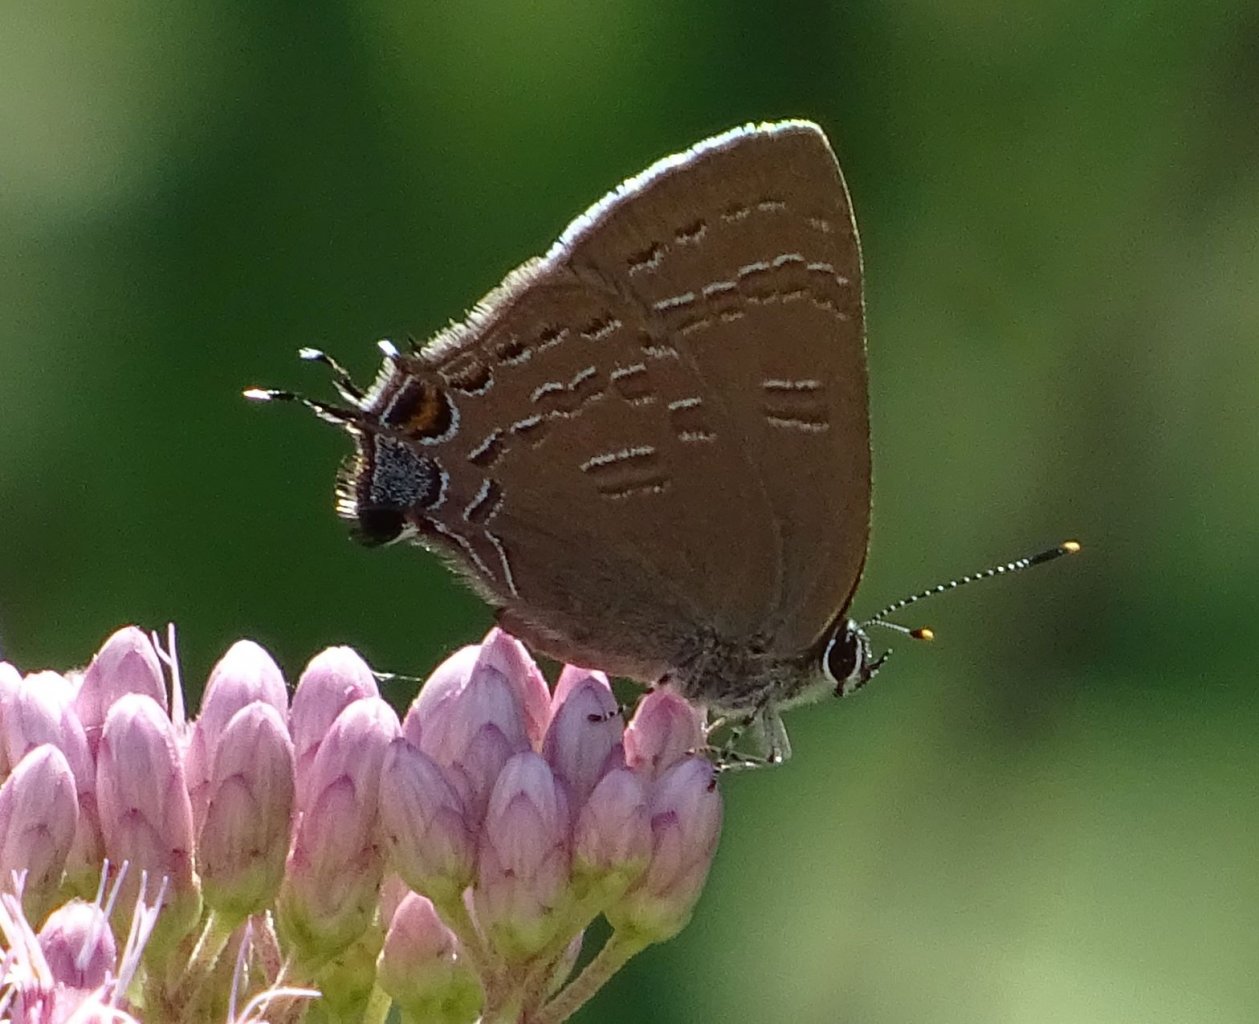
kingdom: Animalia
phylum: Arthropoda
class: Insecta
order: Lepidoptera
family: Lycaenidae
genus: Satyrium
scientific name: Satyrium calanus
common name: Banded Hairstreak
